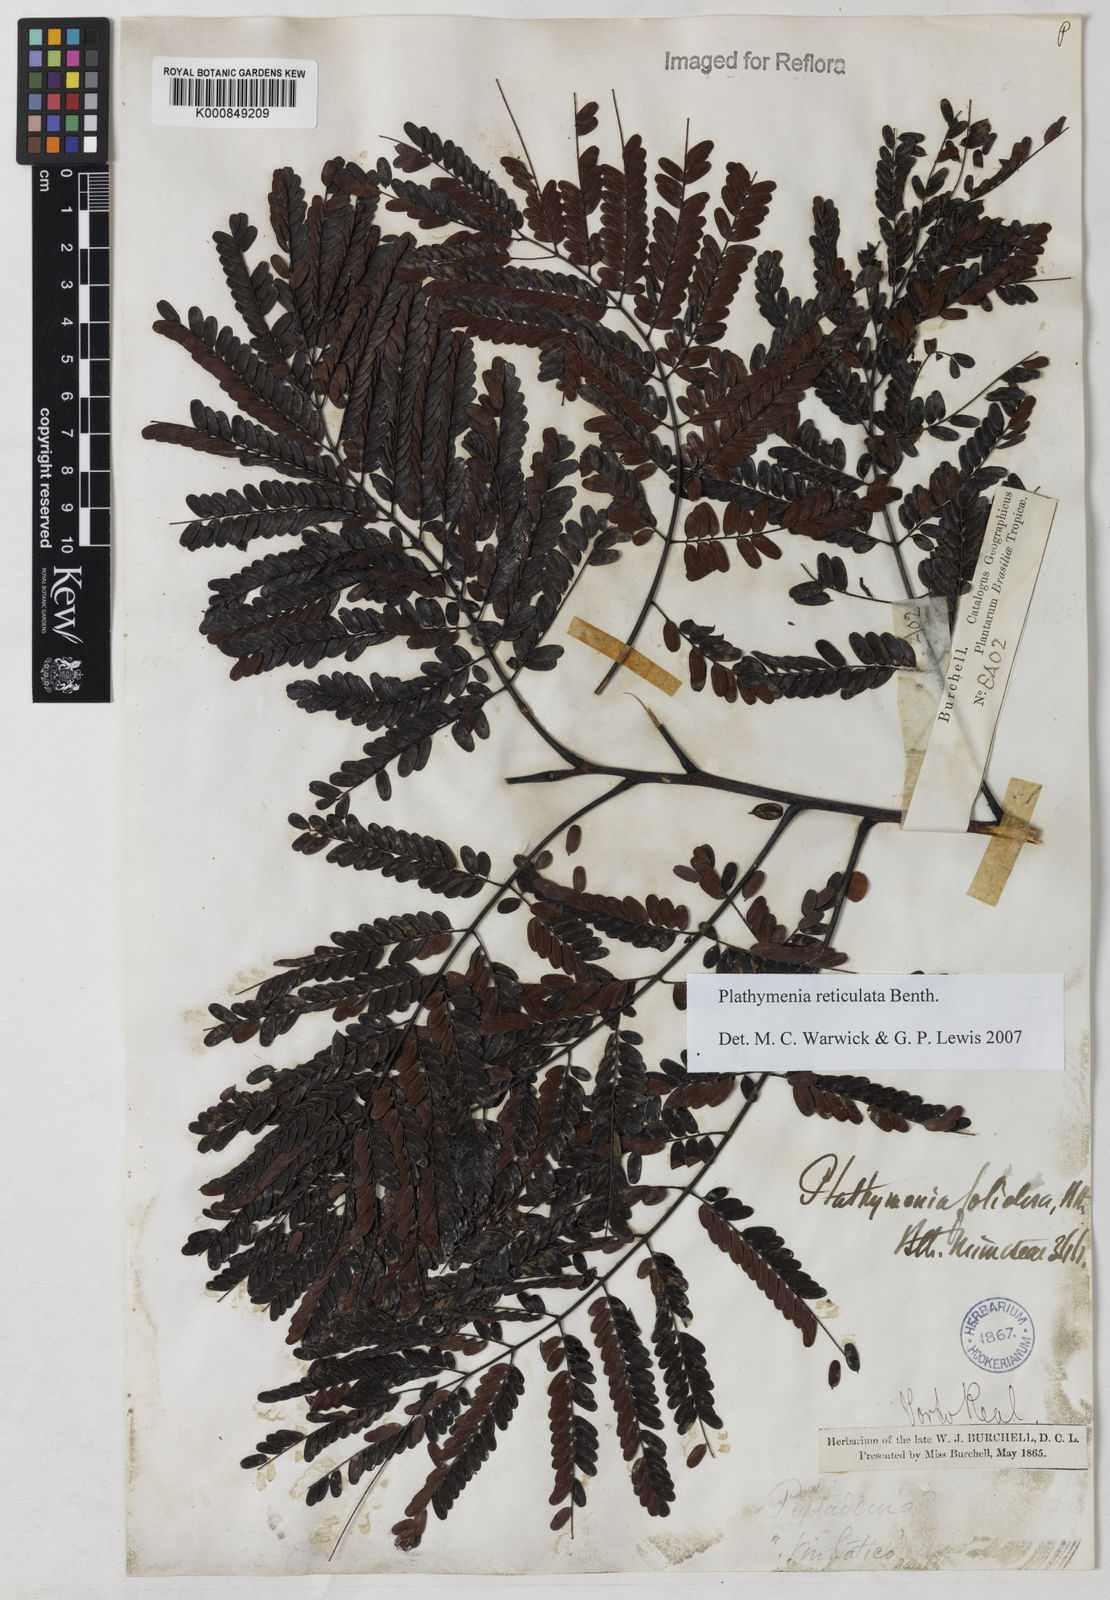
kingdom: Plantae
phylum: Tracheophyta
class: Magnoliopsida
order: Fabales
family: Fabaceae
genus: Plathymenia
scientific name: Plathymenia reticulata
